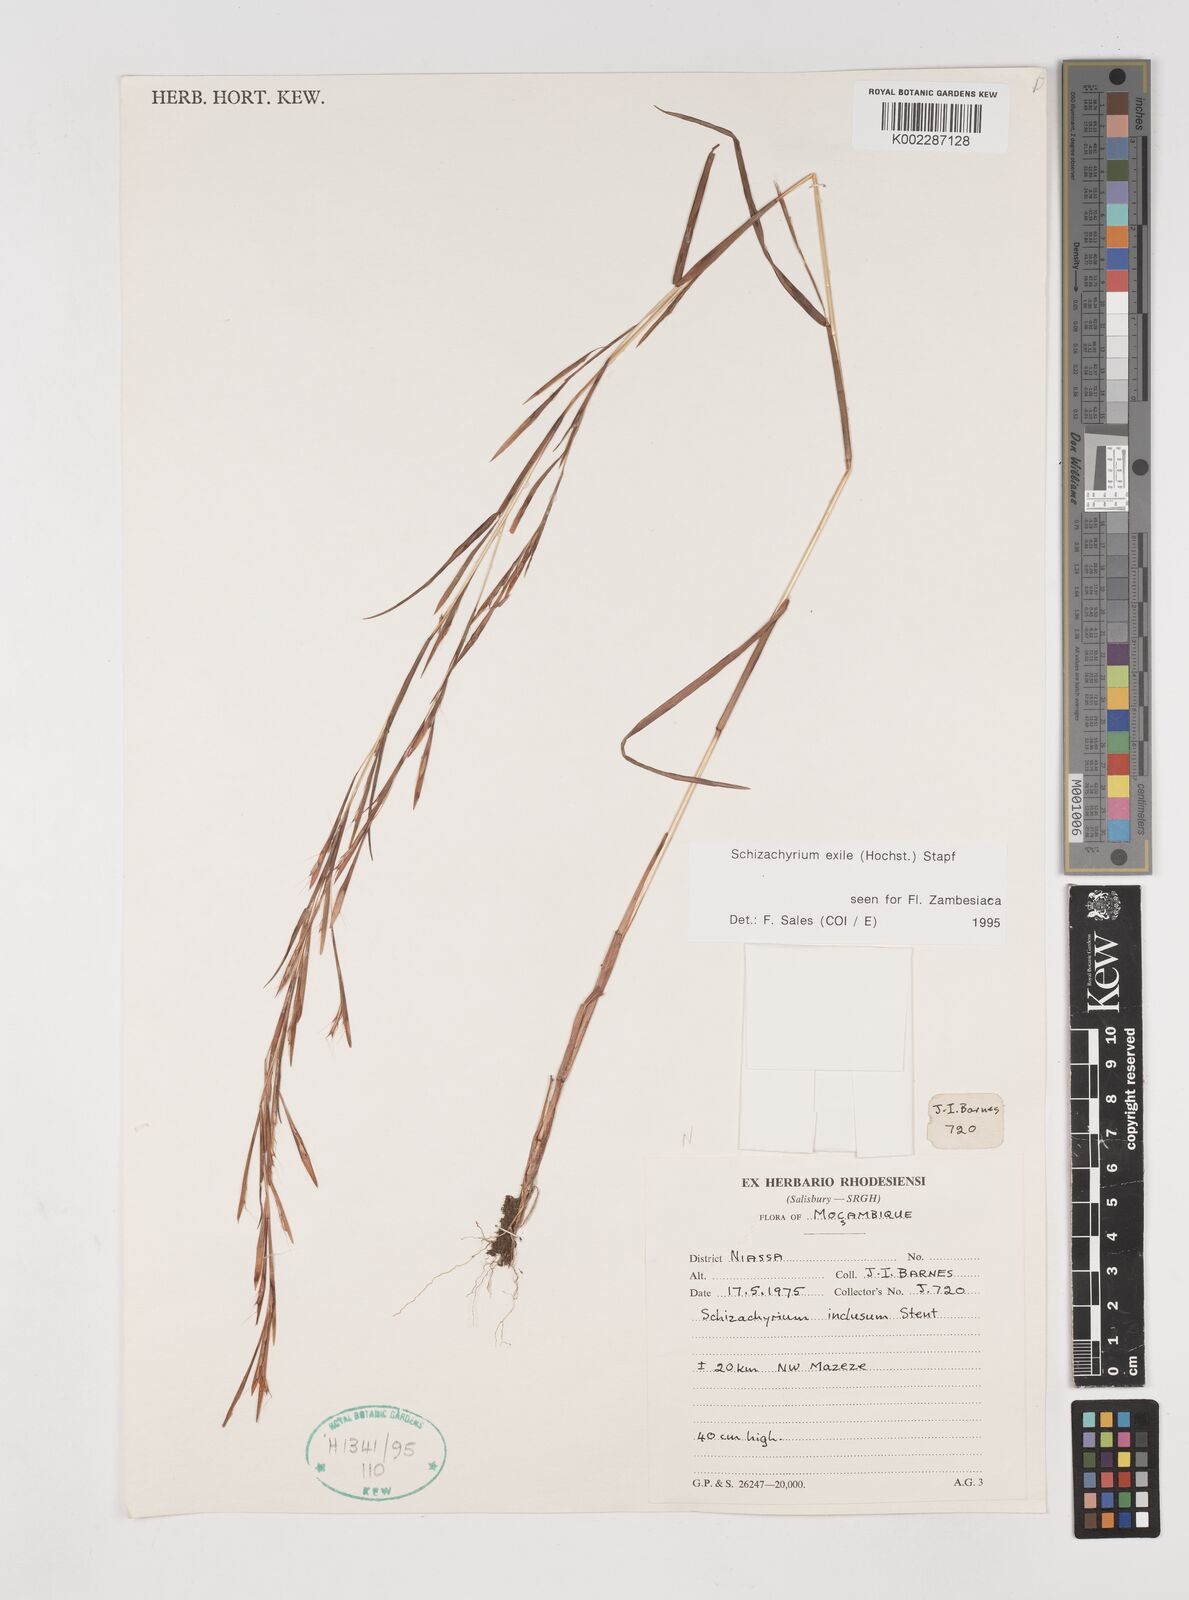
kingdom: Plantae
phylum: Tracheophyta
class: Liliopsida
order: Poales
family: Poaceae
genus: Schizachyrium
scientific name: Schizachyrium exile
